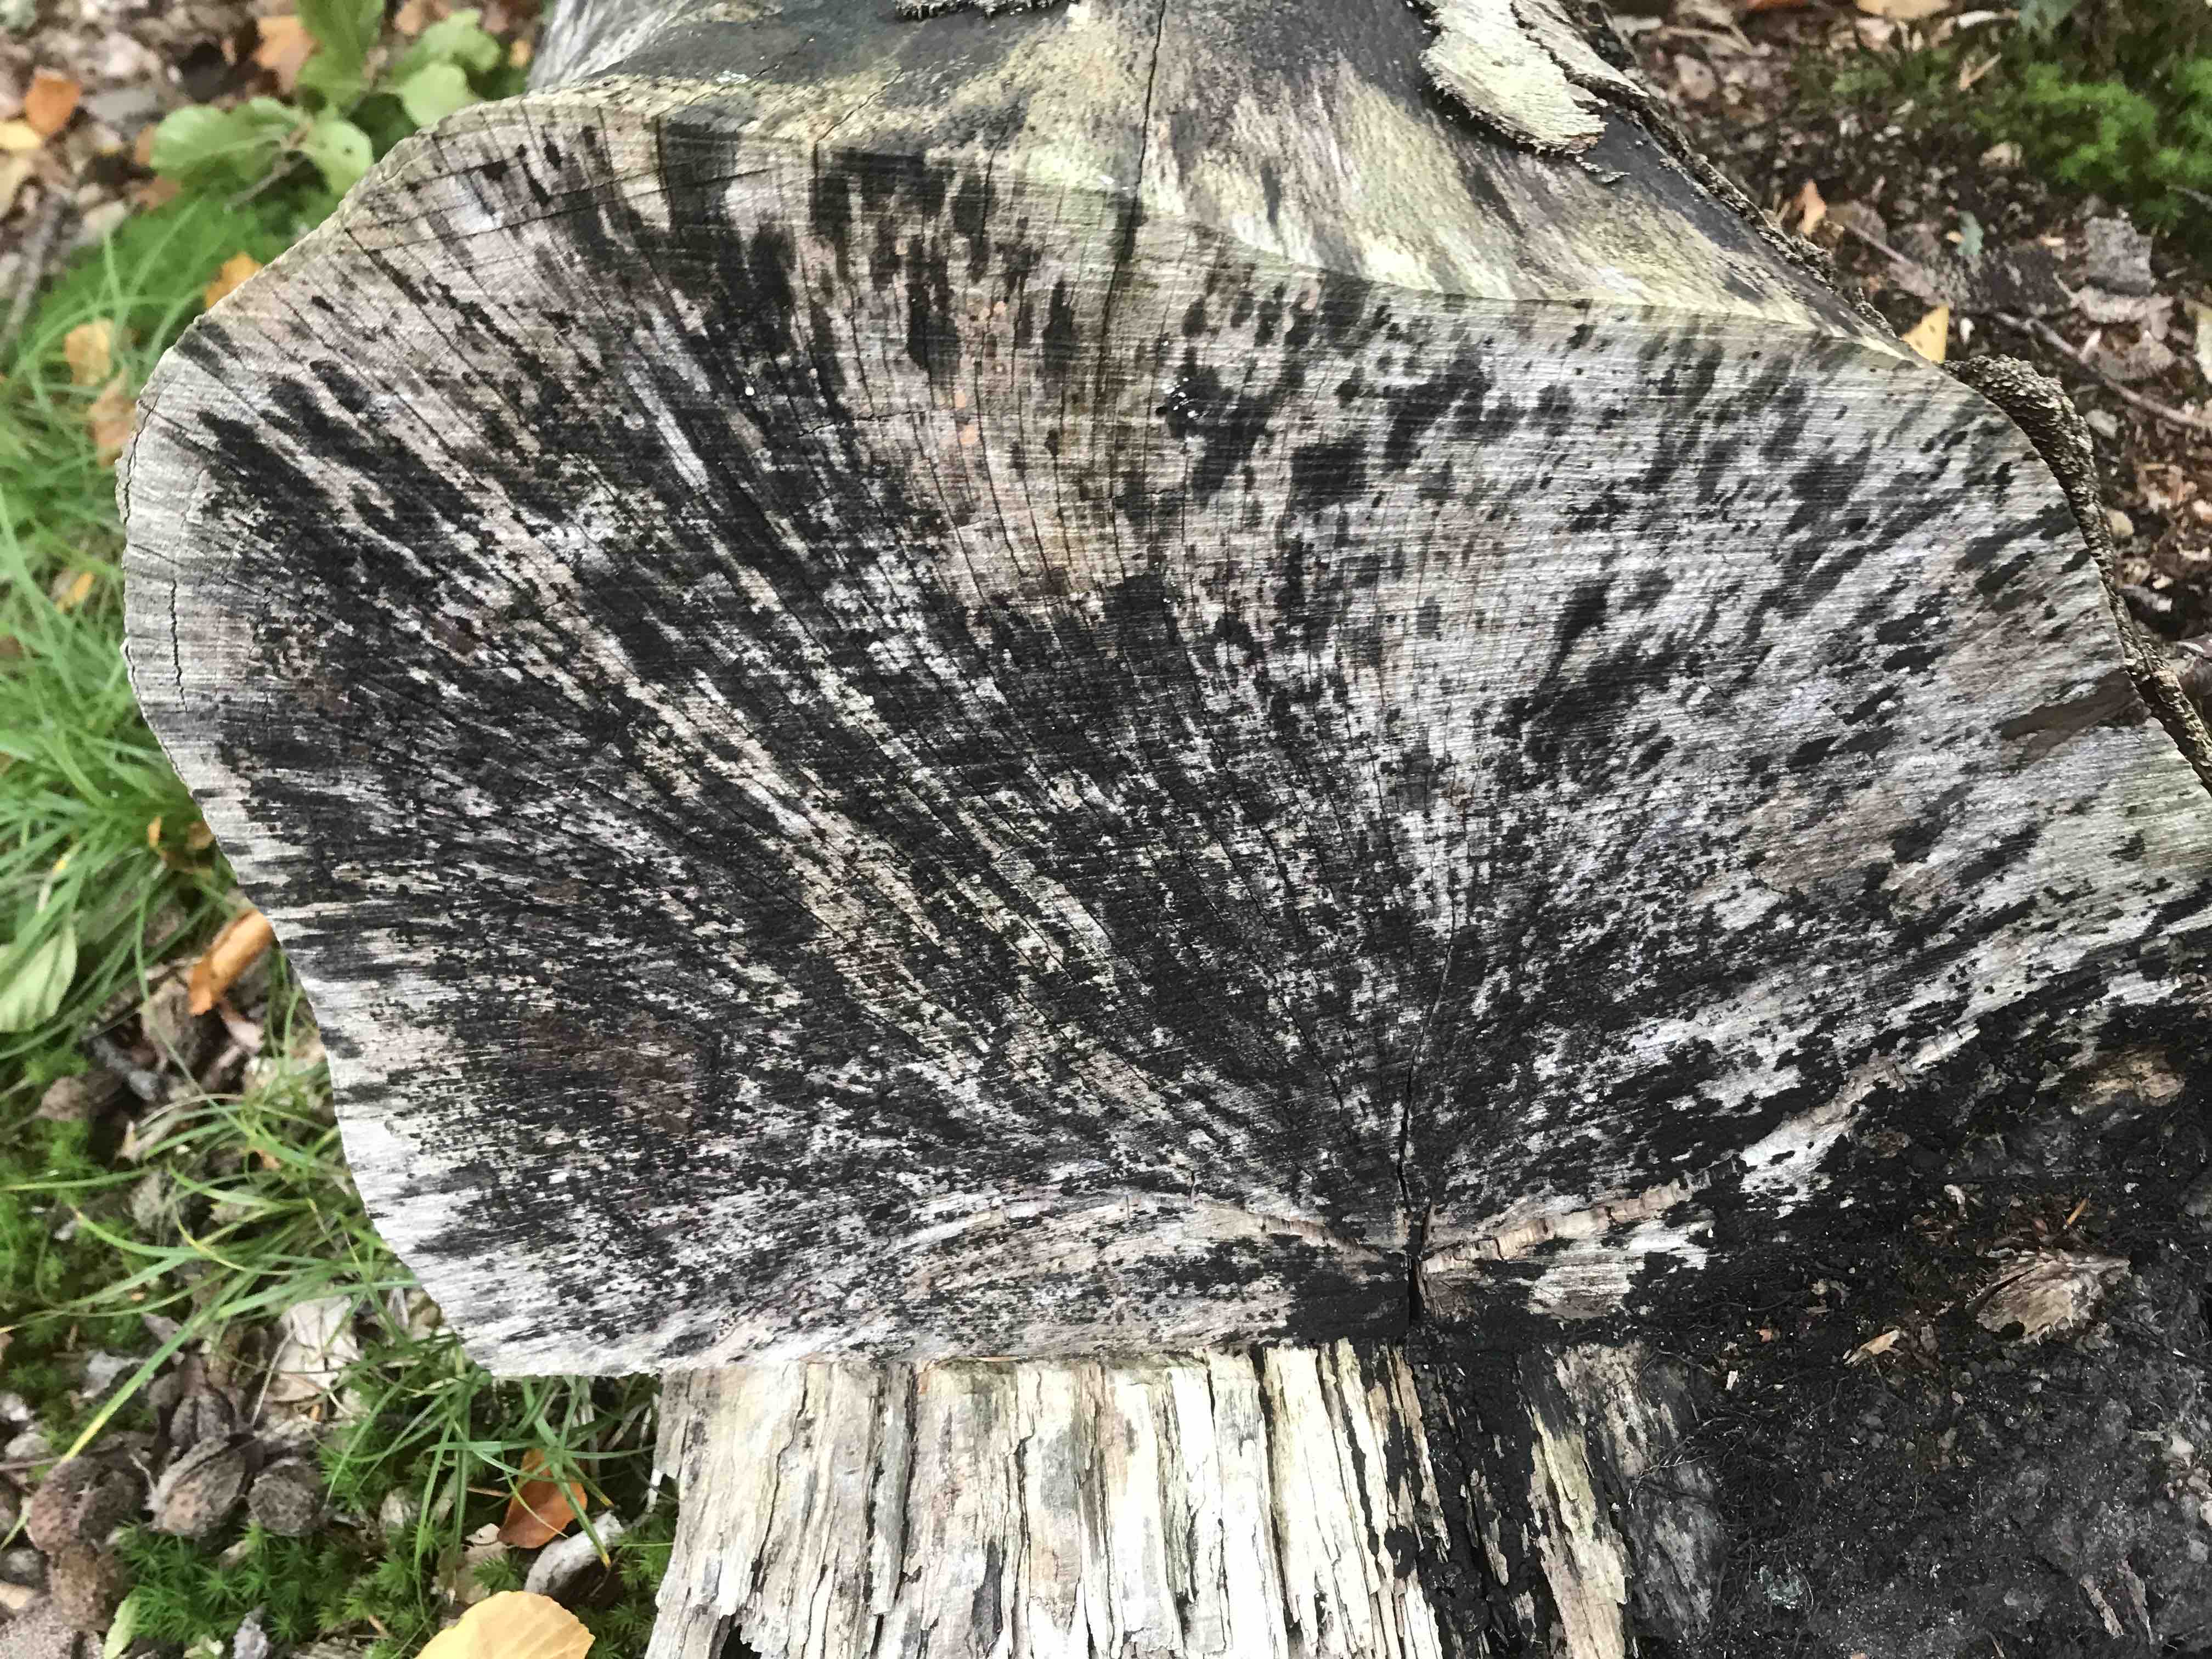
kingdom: Fungi
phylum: Ascomycota
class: Leotiomycetes
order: Helotiales
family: Helotiaceae
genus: Bispora
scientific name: Bispora pallescens
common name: måtte-snitskive
